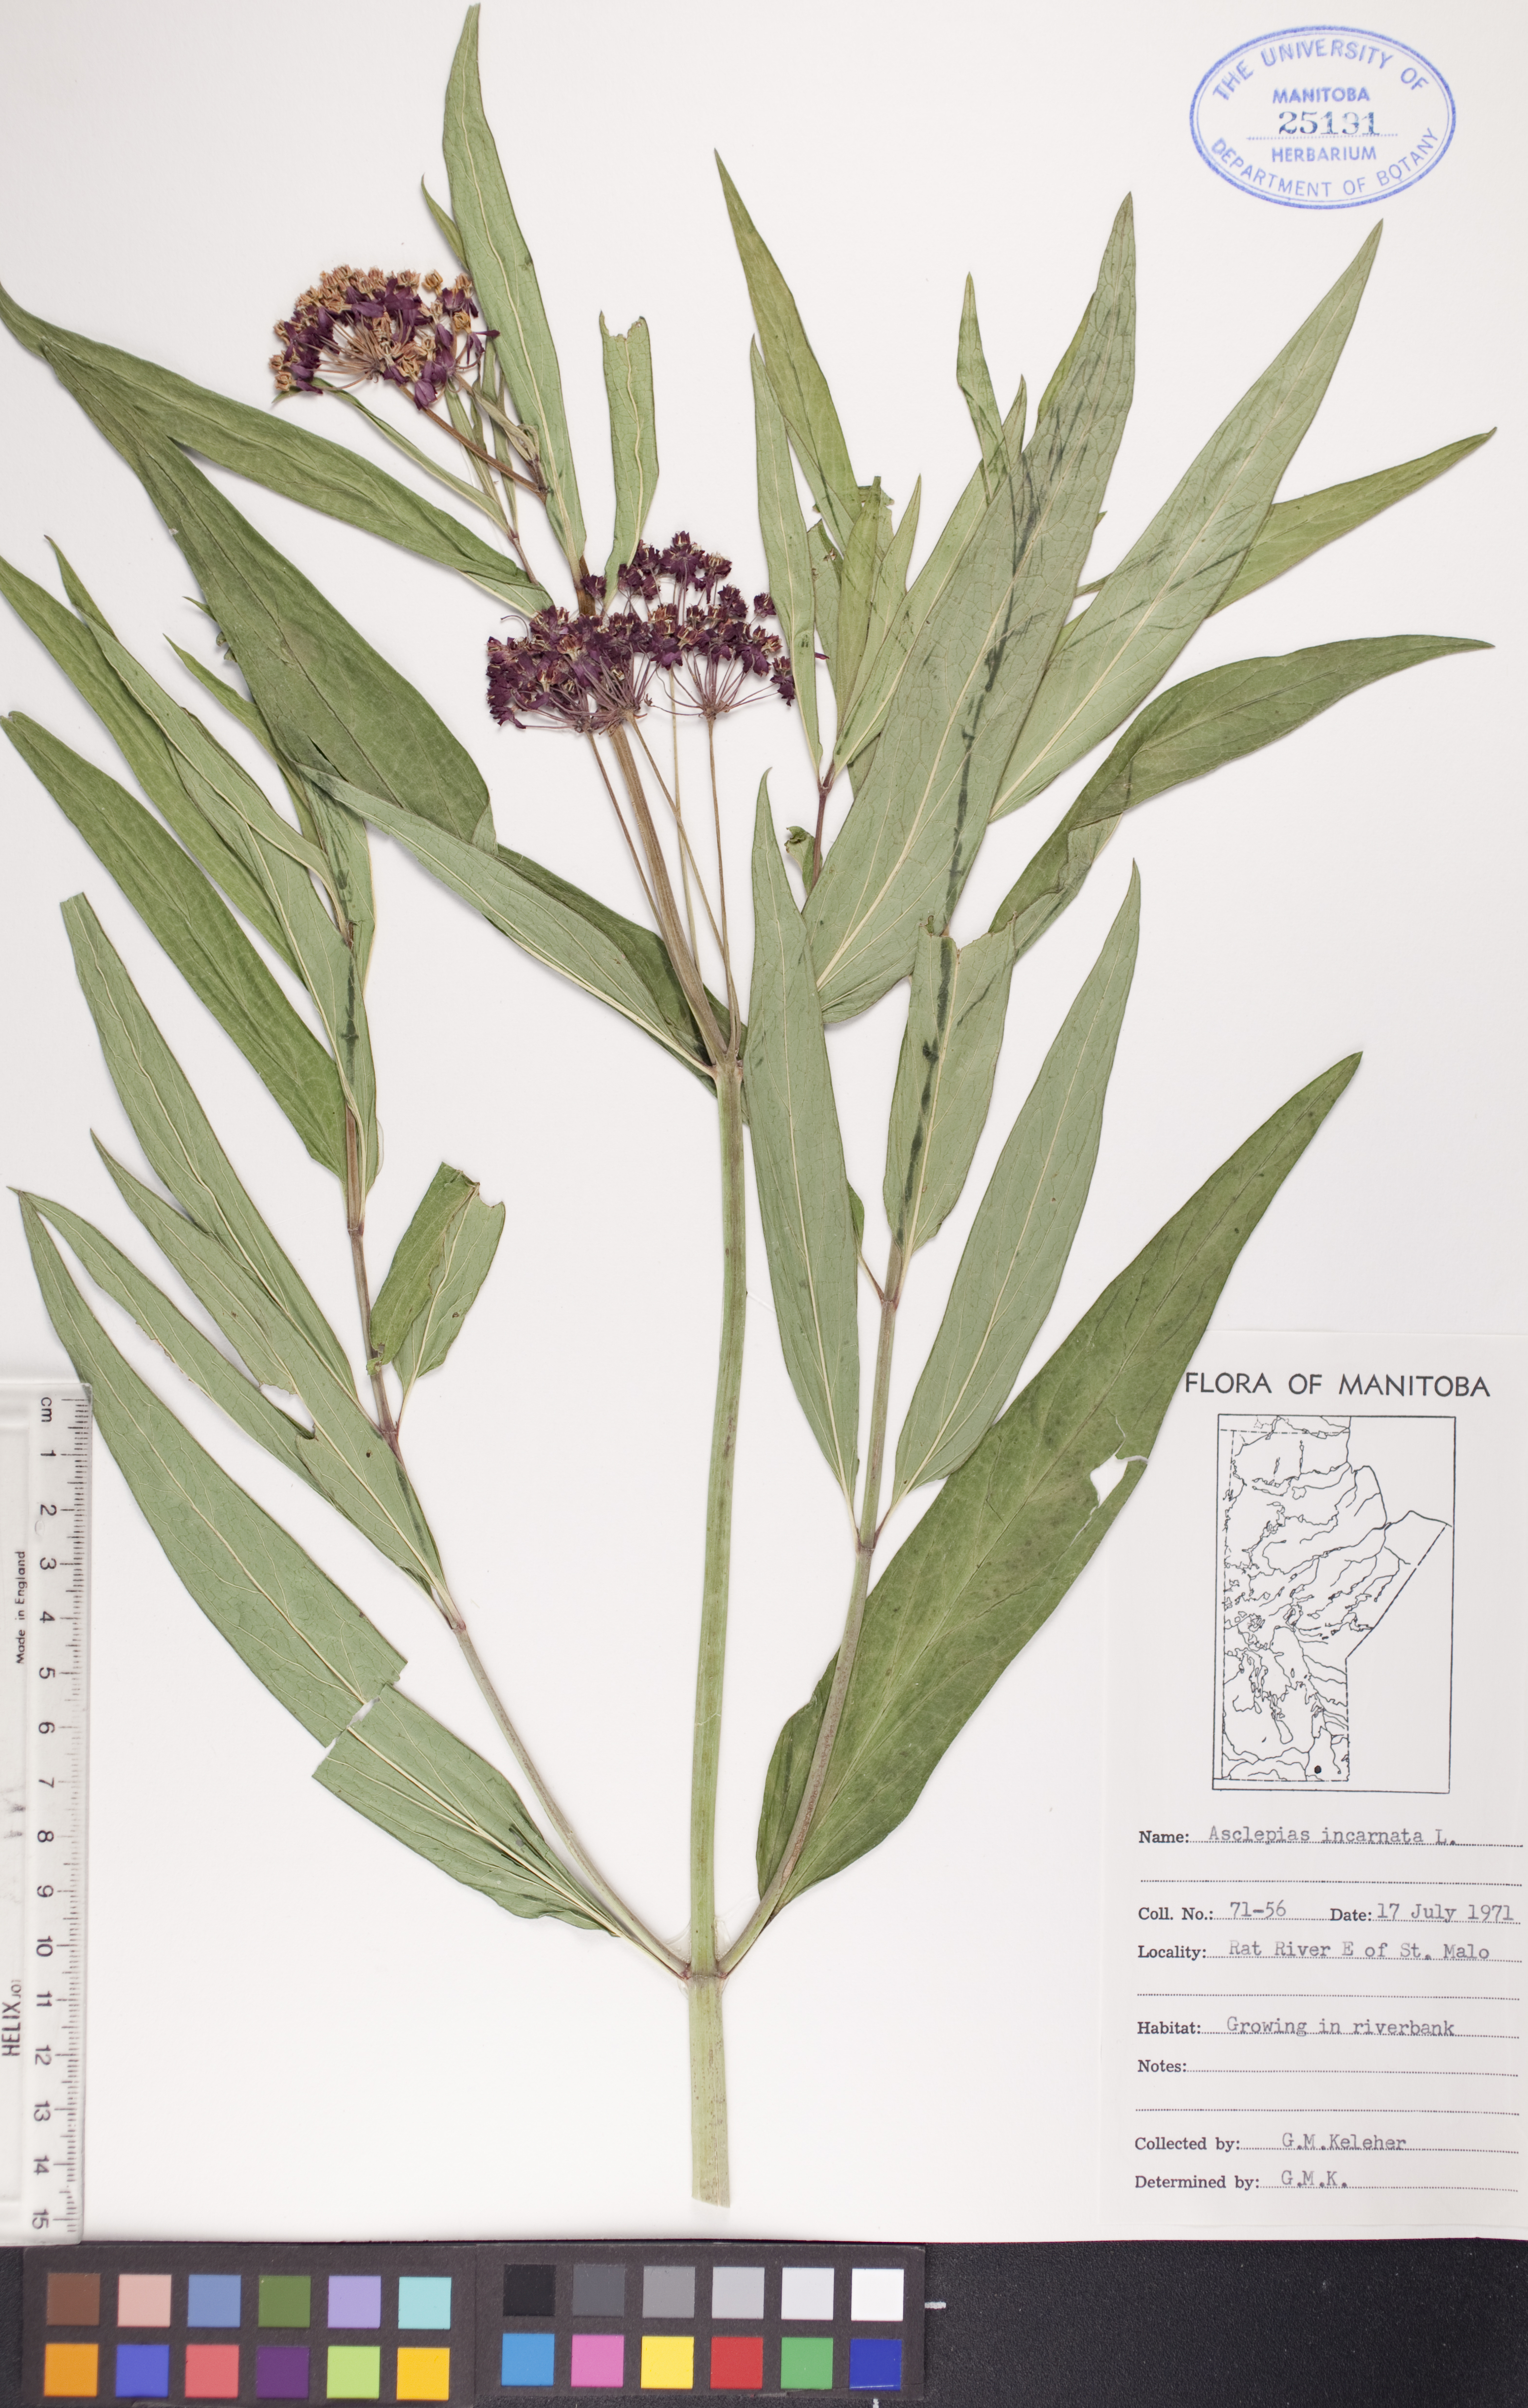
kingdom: Plantae
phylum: Tracheophyta
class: Magnoliopsida
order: Gentianales
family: Apocynaceae
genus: Asclepias
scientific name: Asclepias incarnata
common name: Swamp milkweed
